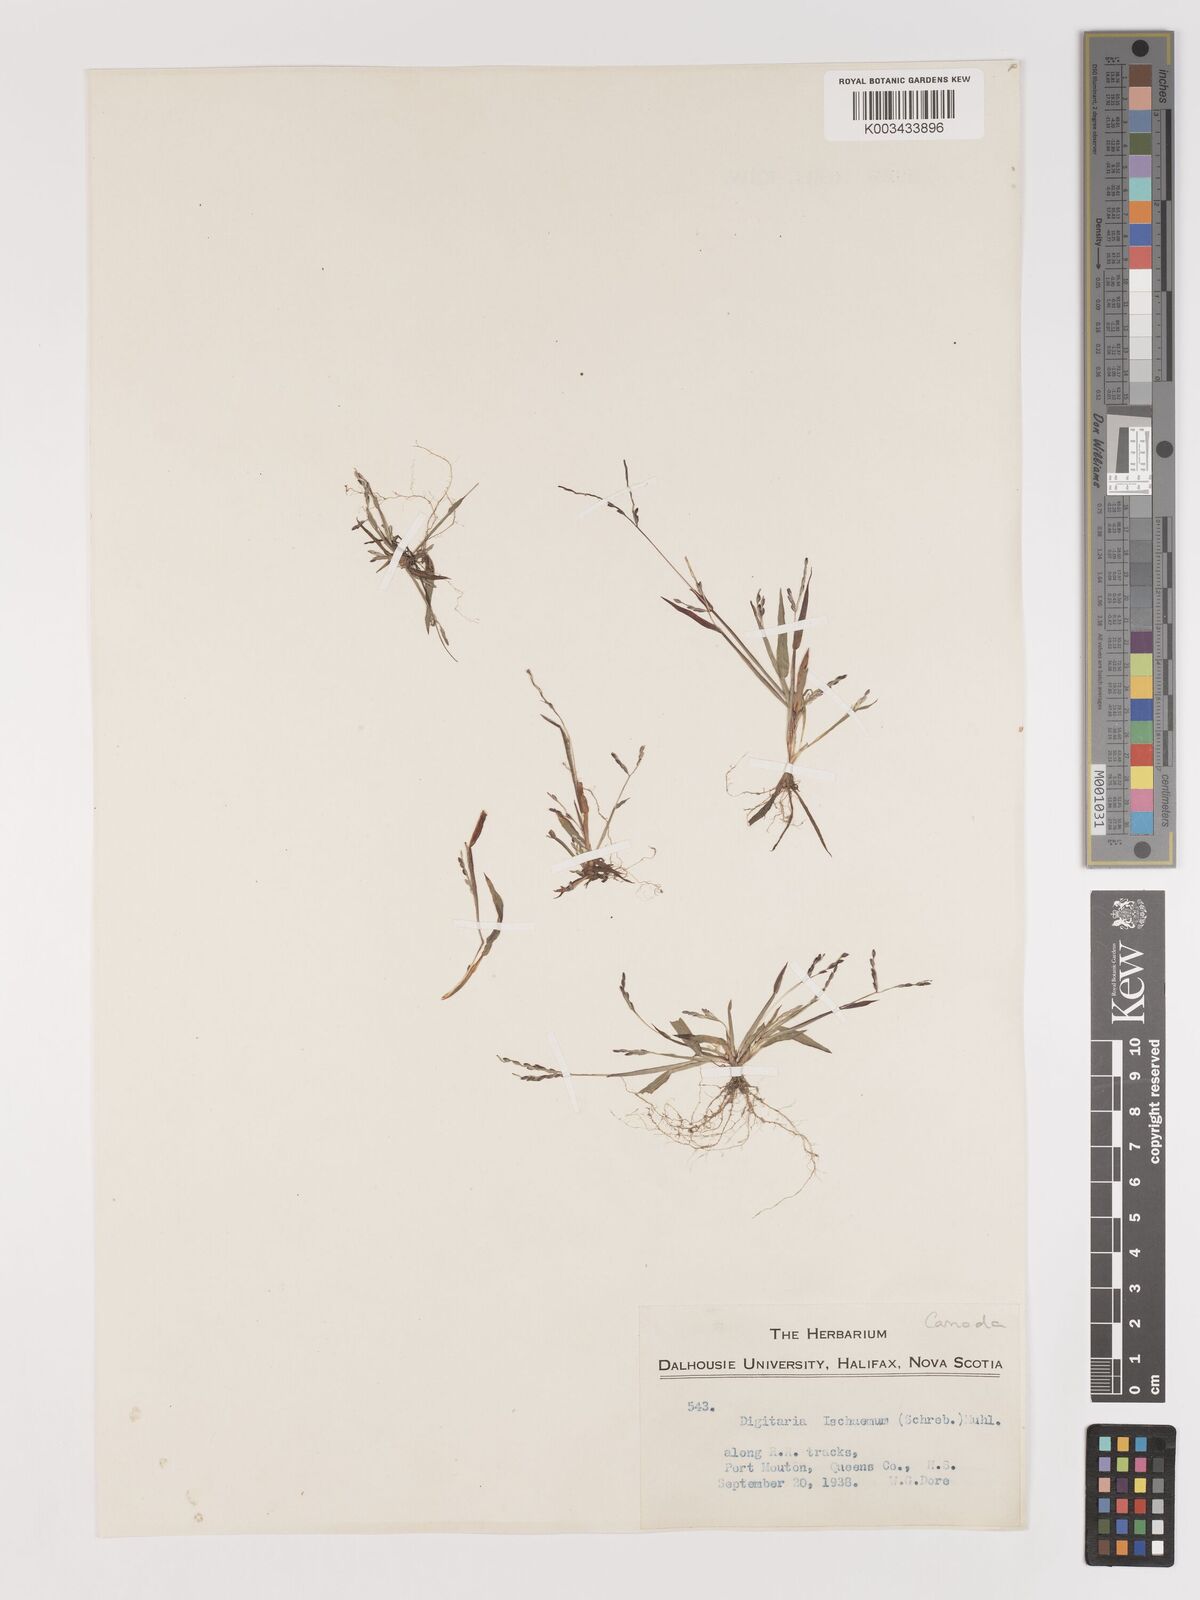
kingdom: Plantae
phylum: Tracheophyta
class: Liliopsida
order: Poales
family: Poaceae
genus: Digitaria
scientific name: Digitaria ischaemum
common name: Smooth crabgrass
